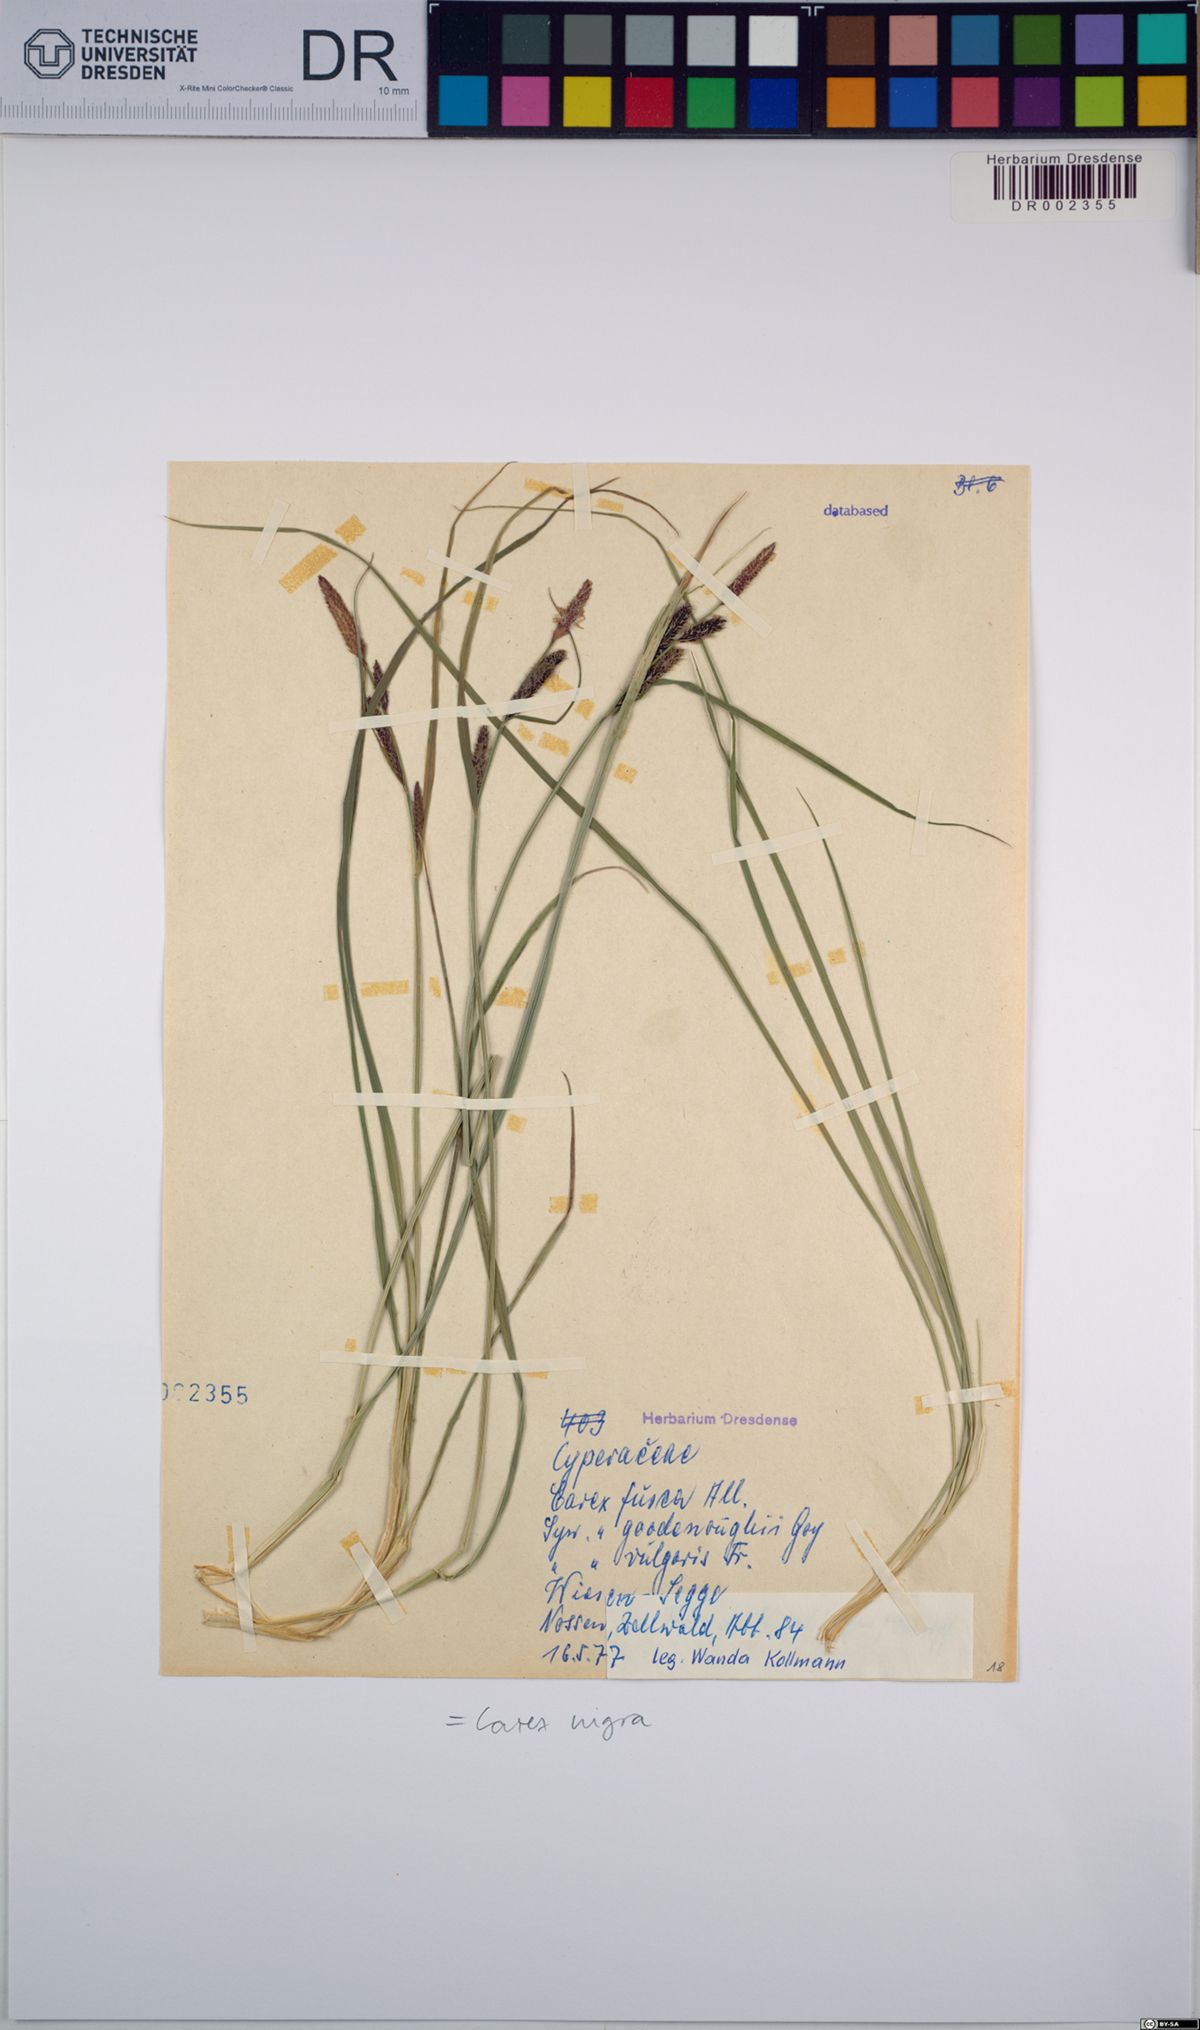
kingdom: Plantae
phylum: Tracheophyta
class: Liliopsida
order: Poales
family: Cyperaceae
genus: Carex
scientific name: Carex nigra
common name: Common sedge
